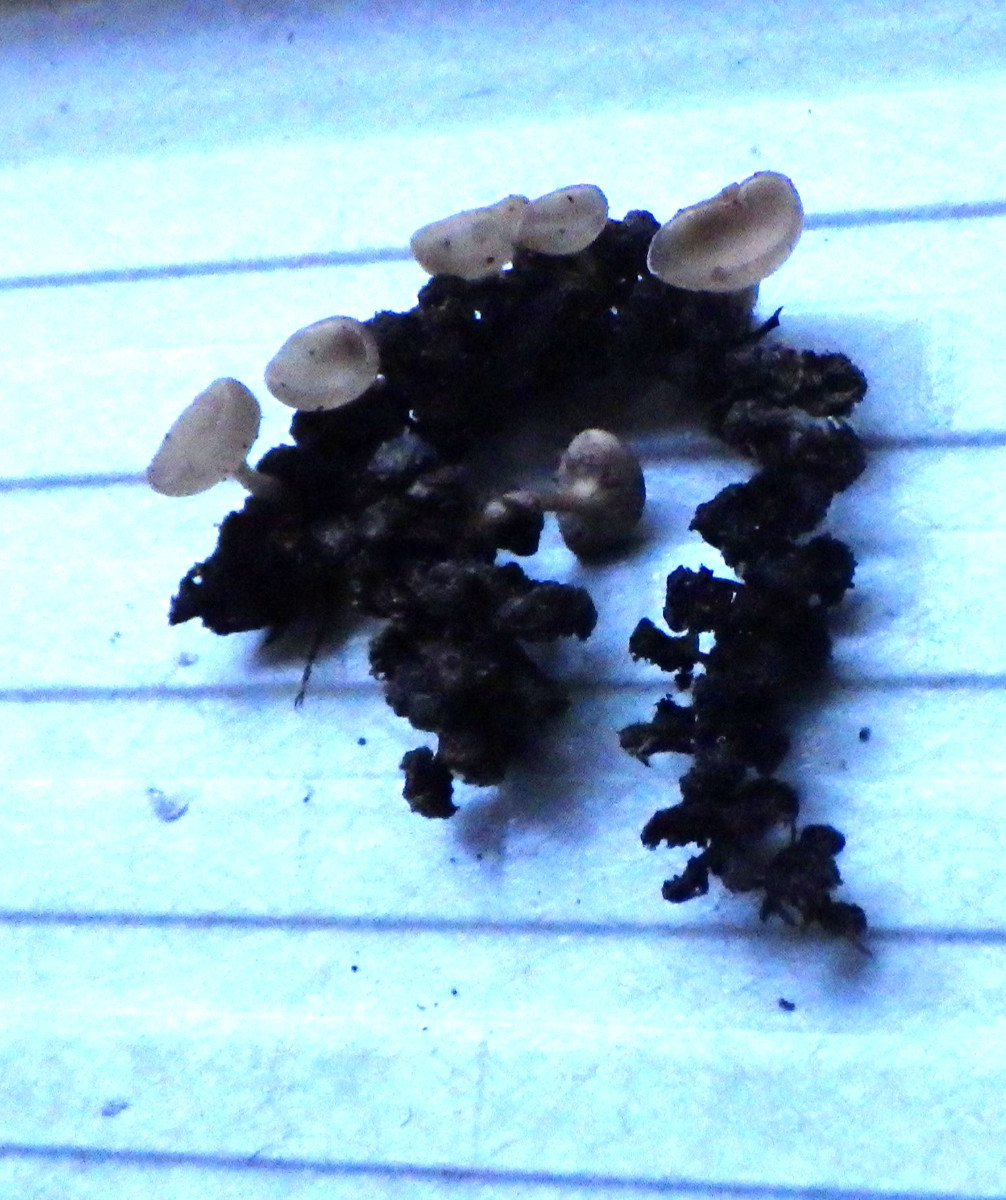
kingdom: Fungi
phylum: Ascomycota
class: Leotiomycetes
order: Helotiales
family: Sclerotiniaceae
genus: Ciboria
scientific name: Ciboria amentacea
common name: ellerakle-knoldskive
